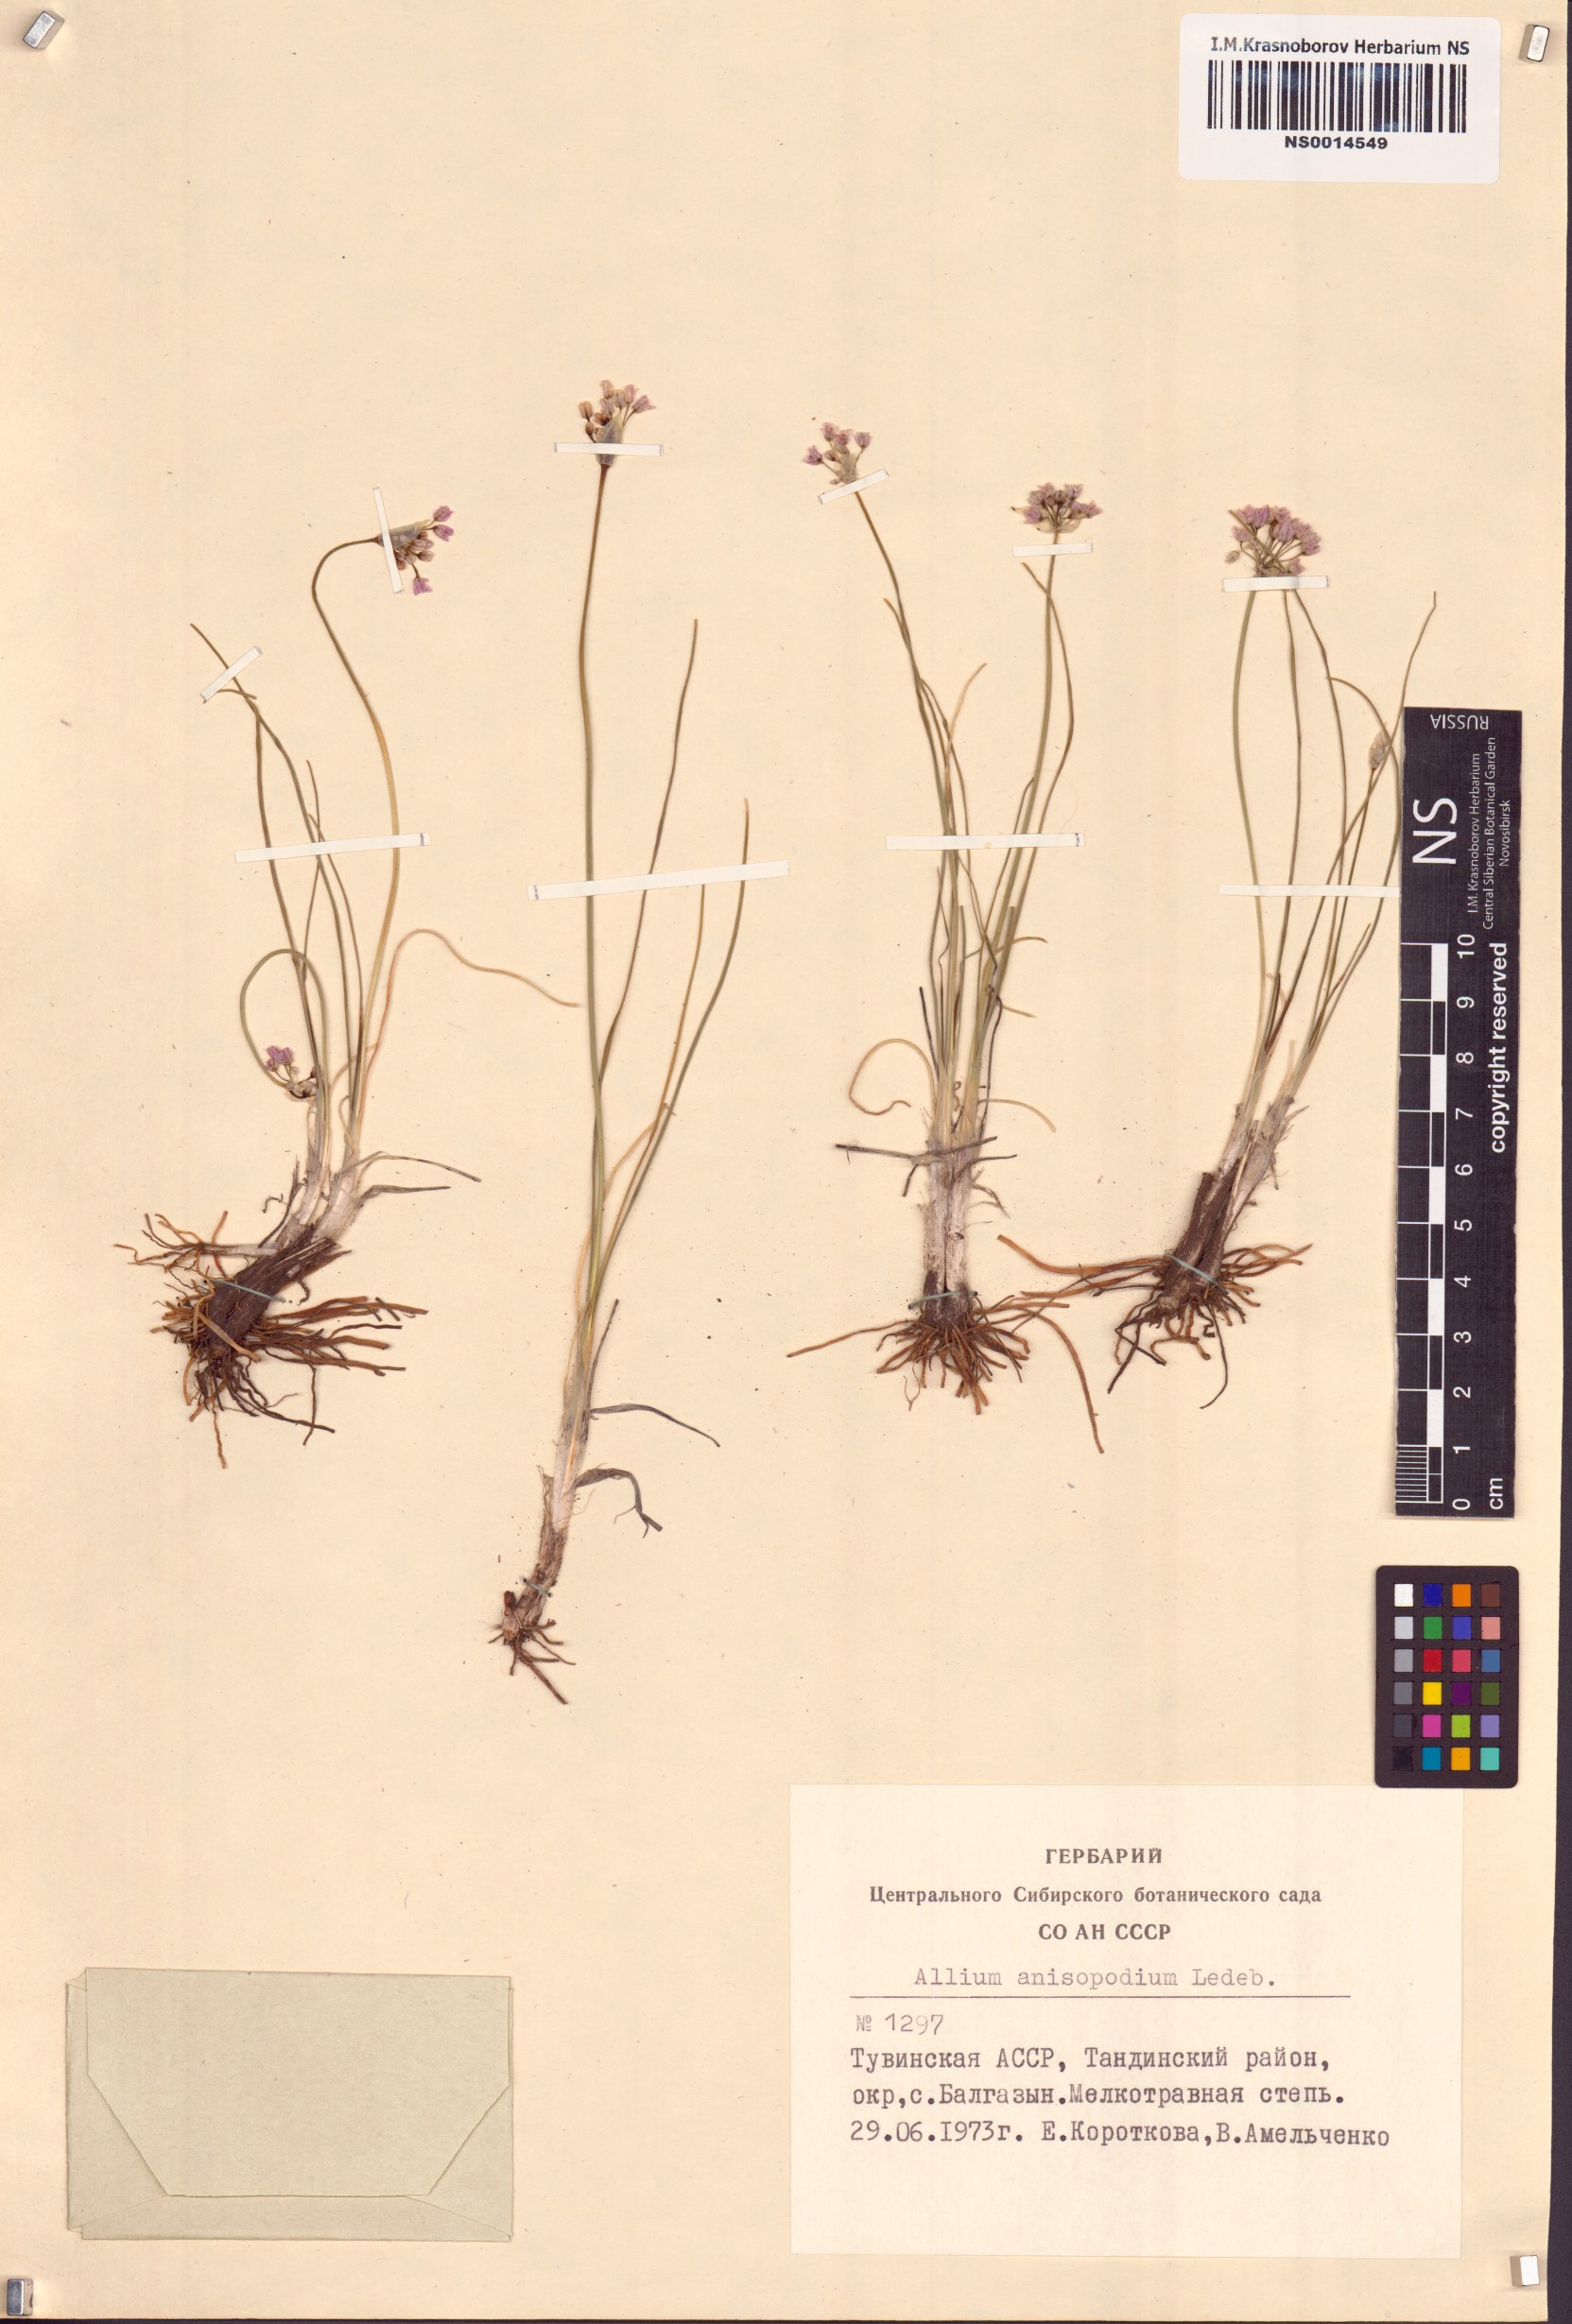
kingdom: Plantae
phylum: Tracheophyta
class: Liliopsida
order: Asparagales
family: Amaryllidaceae
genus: Allium
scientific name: Allium anisopodium
